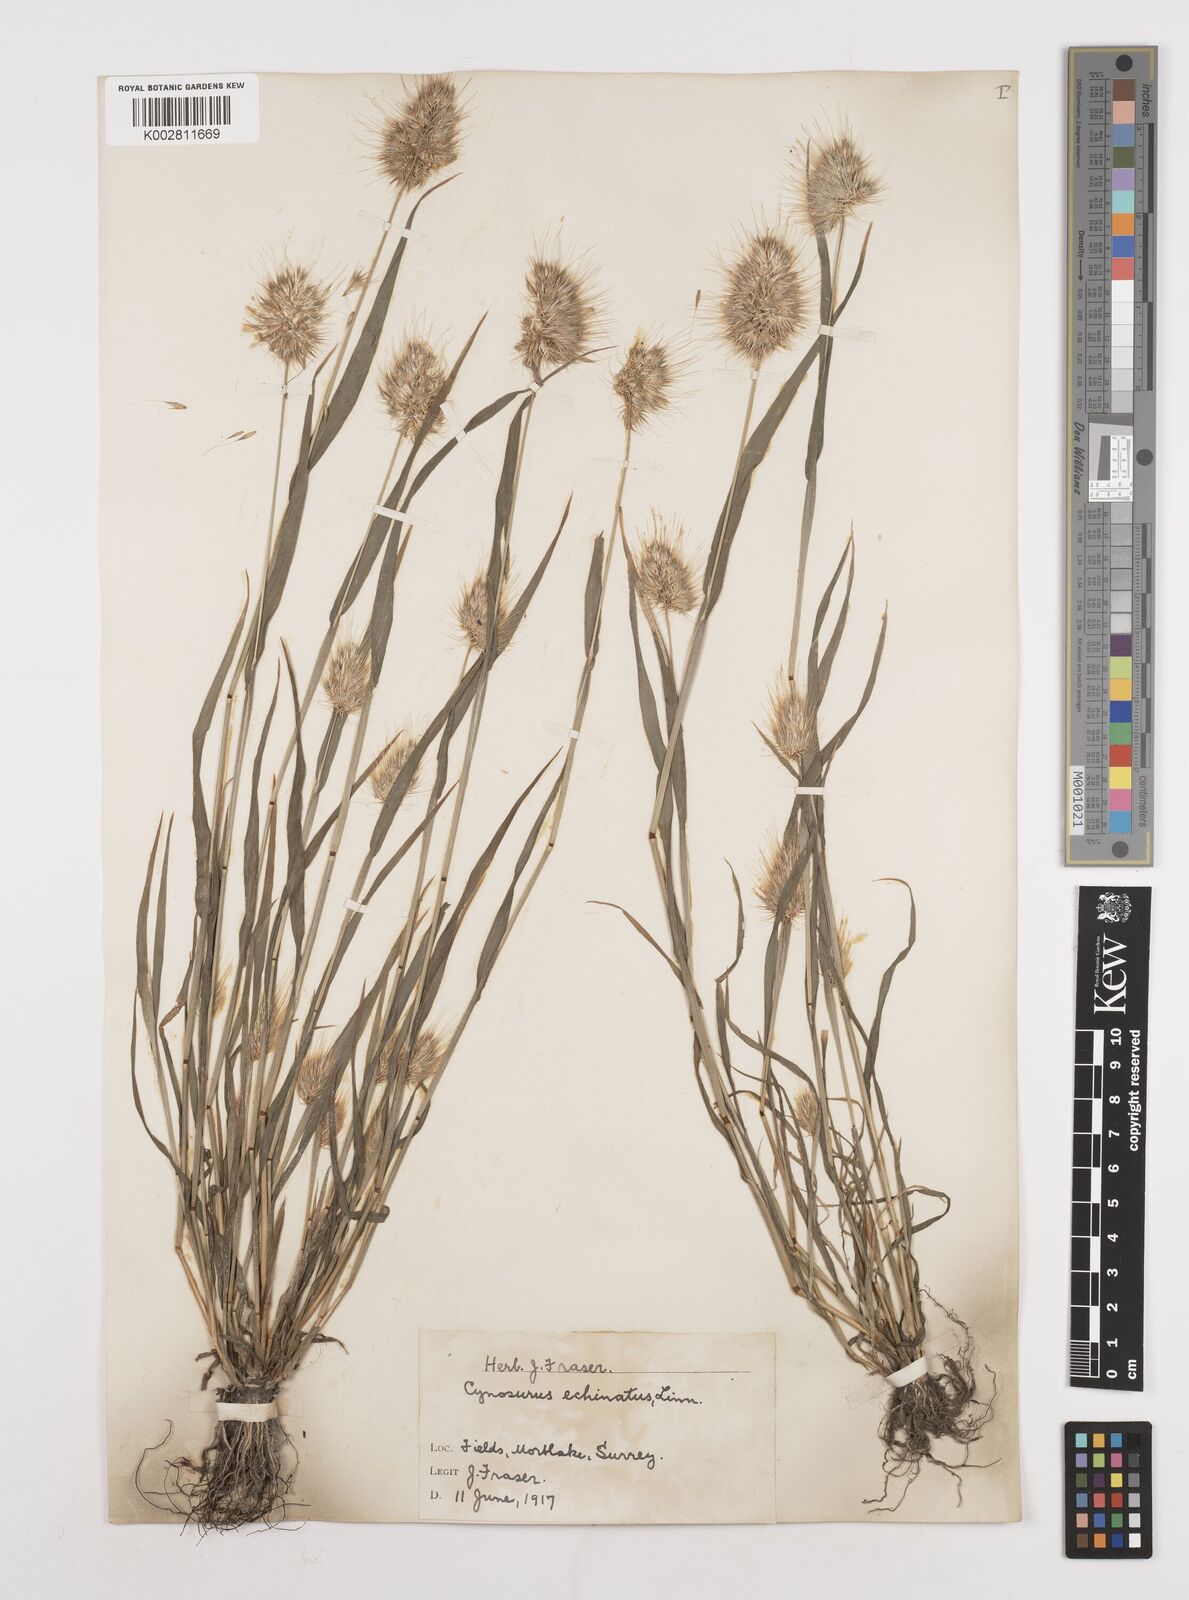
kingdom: Plantae
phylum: Tracheophyta
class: Liliopsida
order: Poales
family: Poaceae
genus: Cynosurus
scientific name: Cynosurus echinatus
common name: Rough dog's-tail
